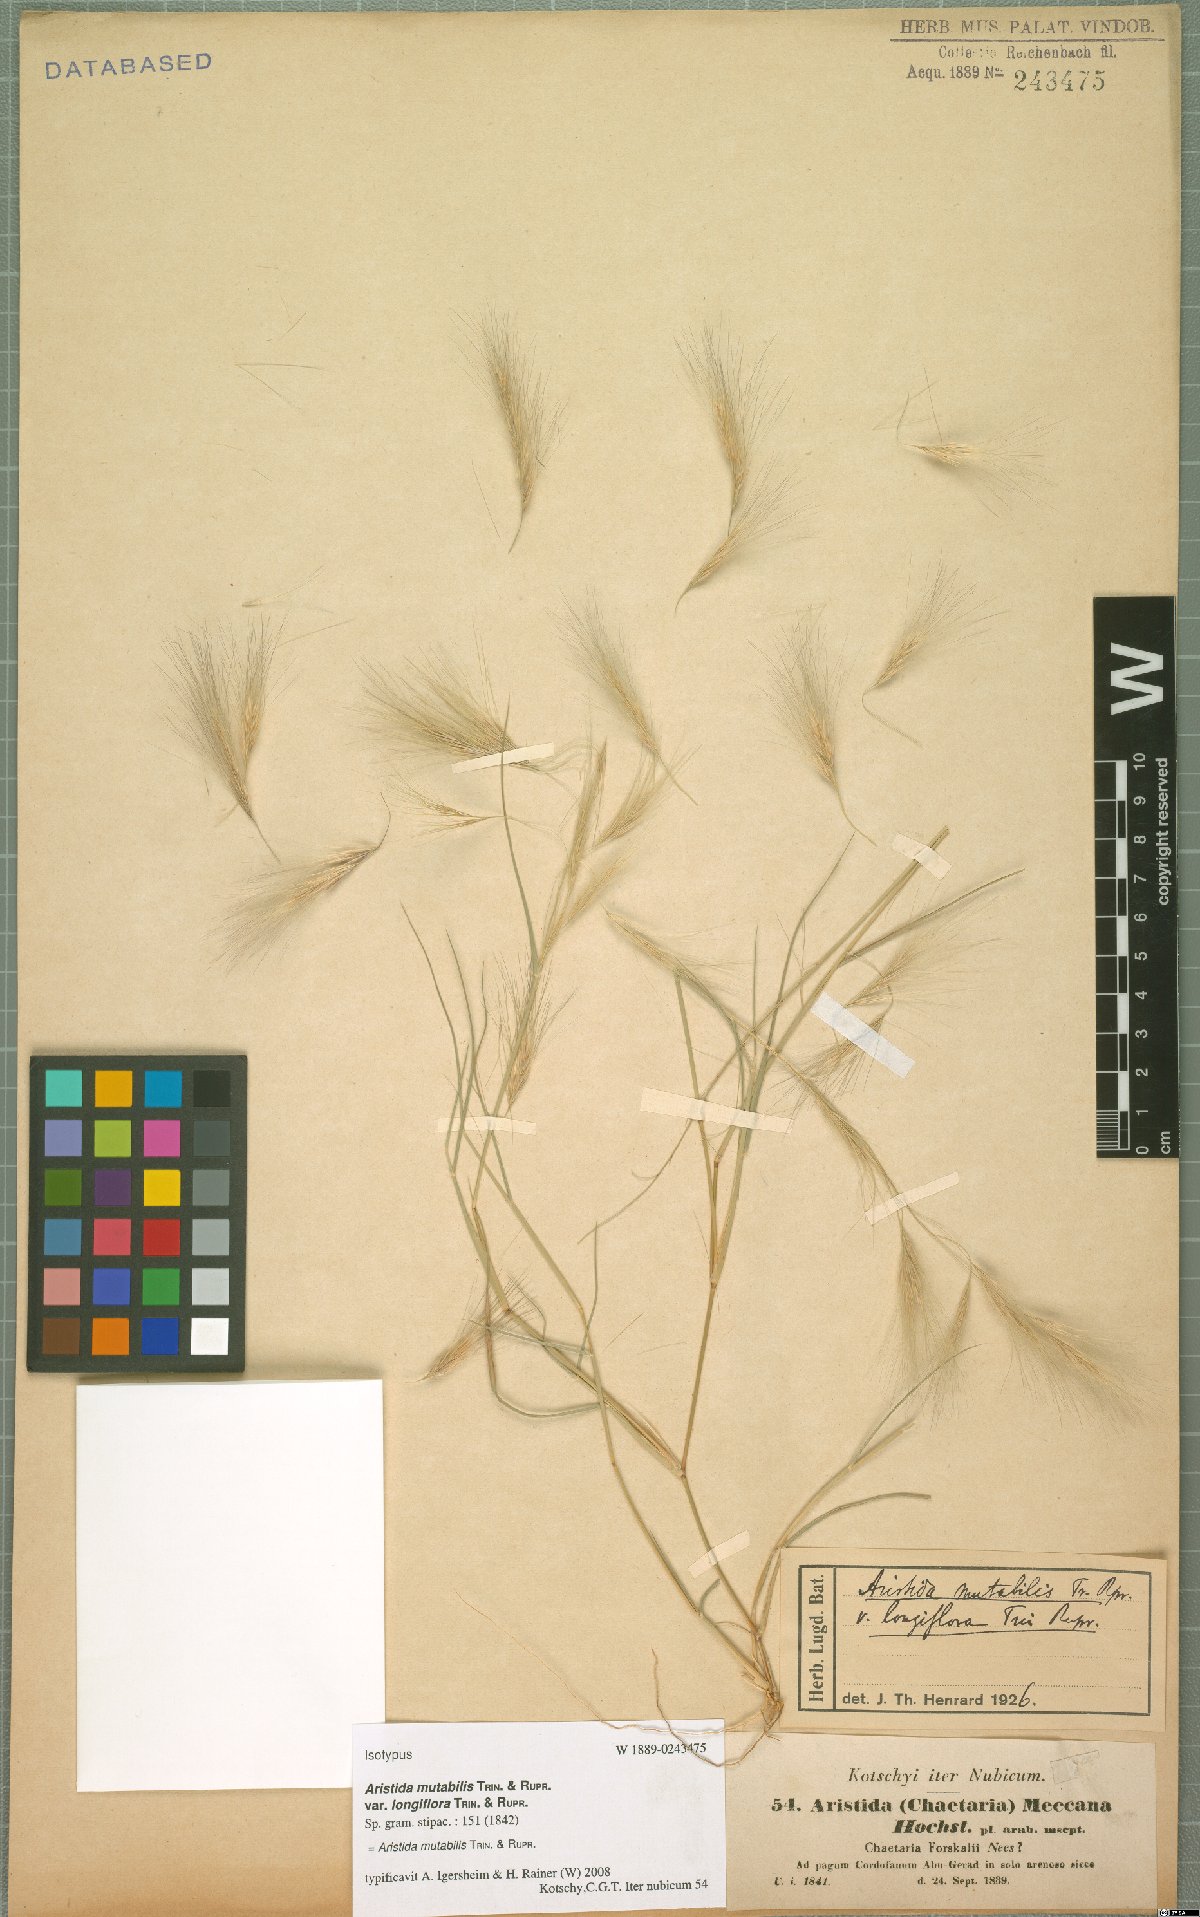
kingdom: Plantae
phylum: Tracheophyta
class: Liliopsida
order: Poales
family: Poaceae
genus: Aristida
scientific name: Aristida mutabilis
